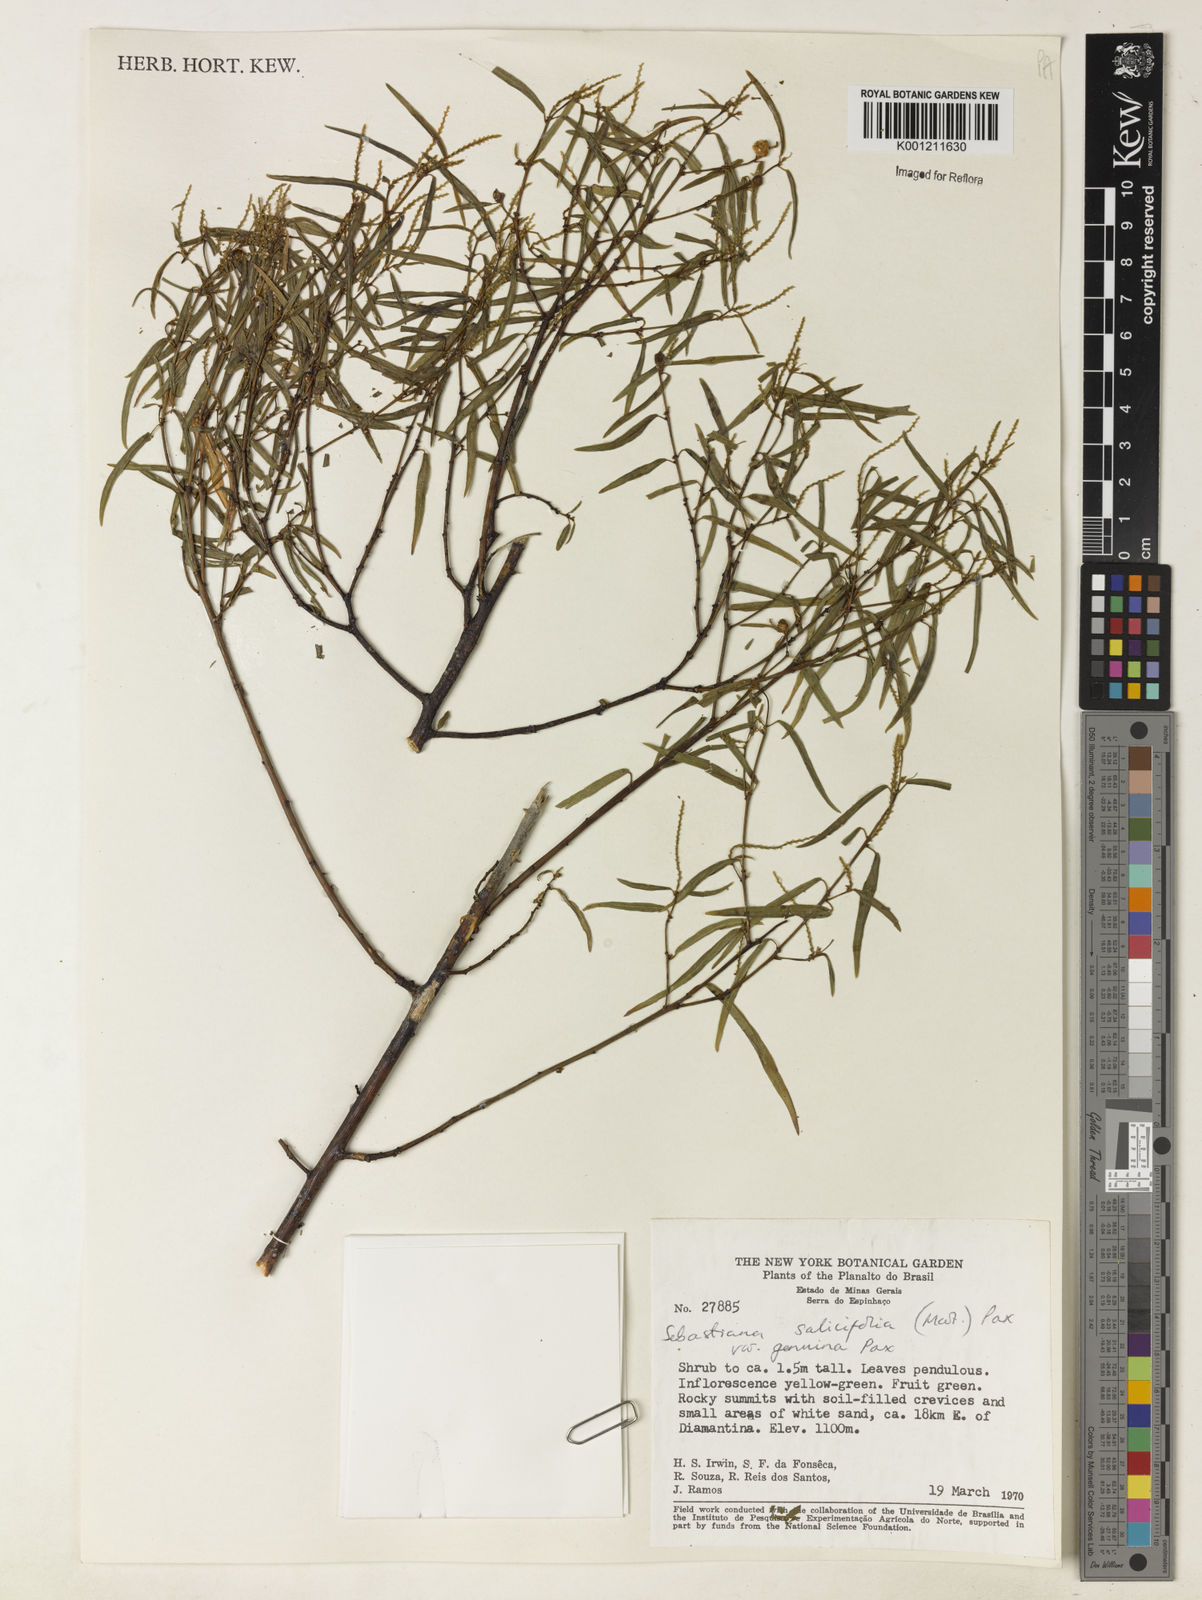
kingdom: Plantae
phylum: Tracheophyta
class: Magnoliopsida
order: Malpighiales
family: Euphorbiaceae
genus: Microstachys
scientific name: Microstachys
